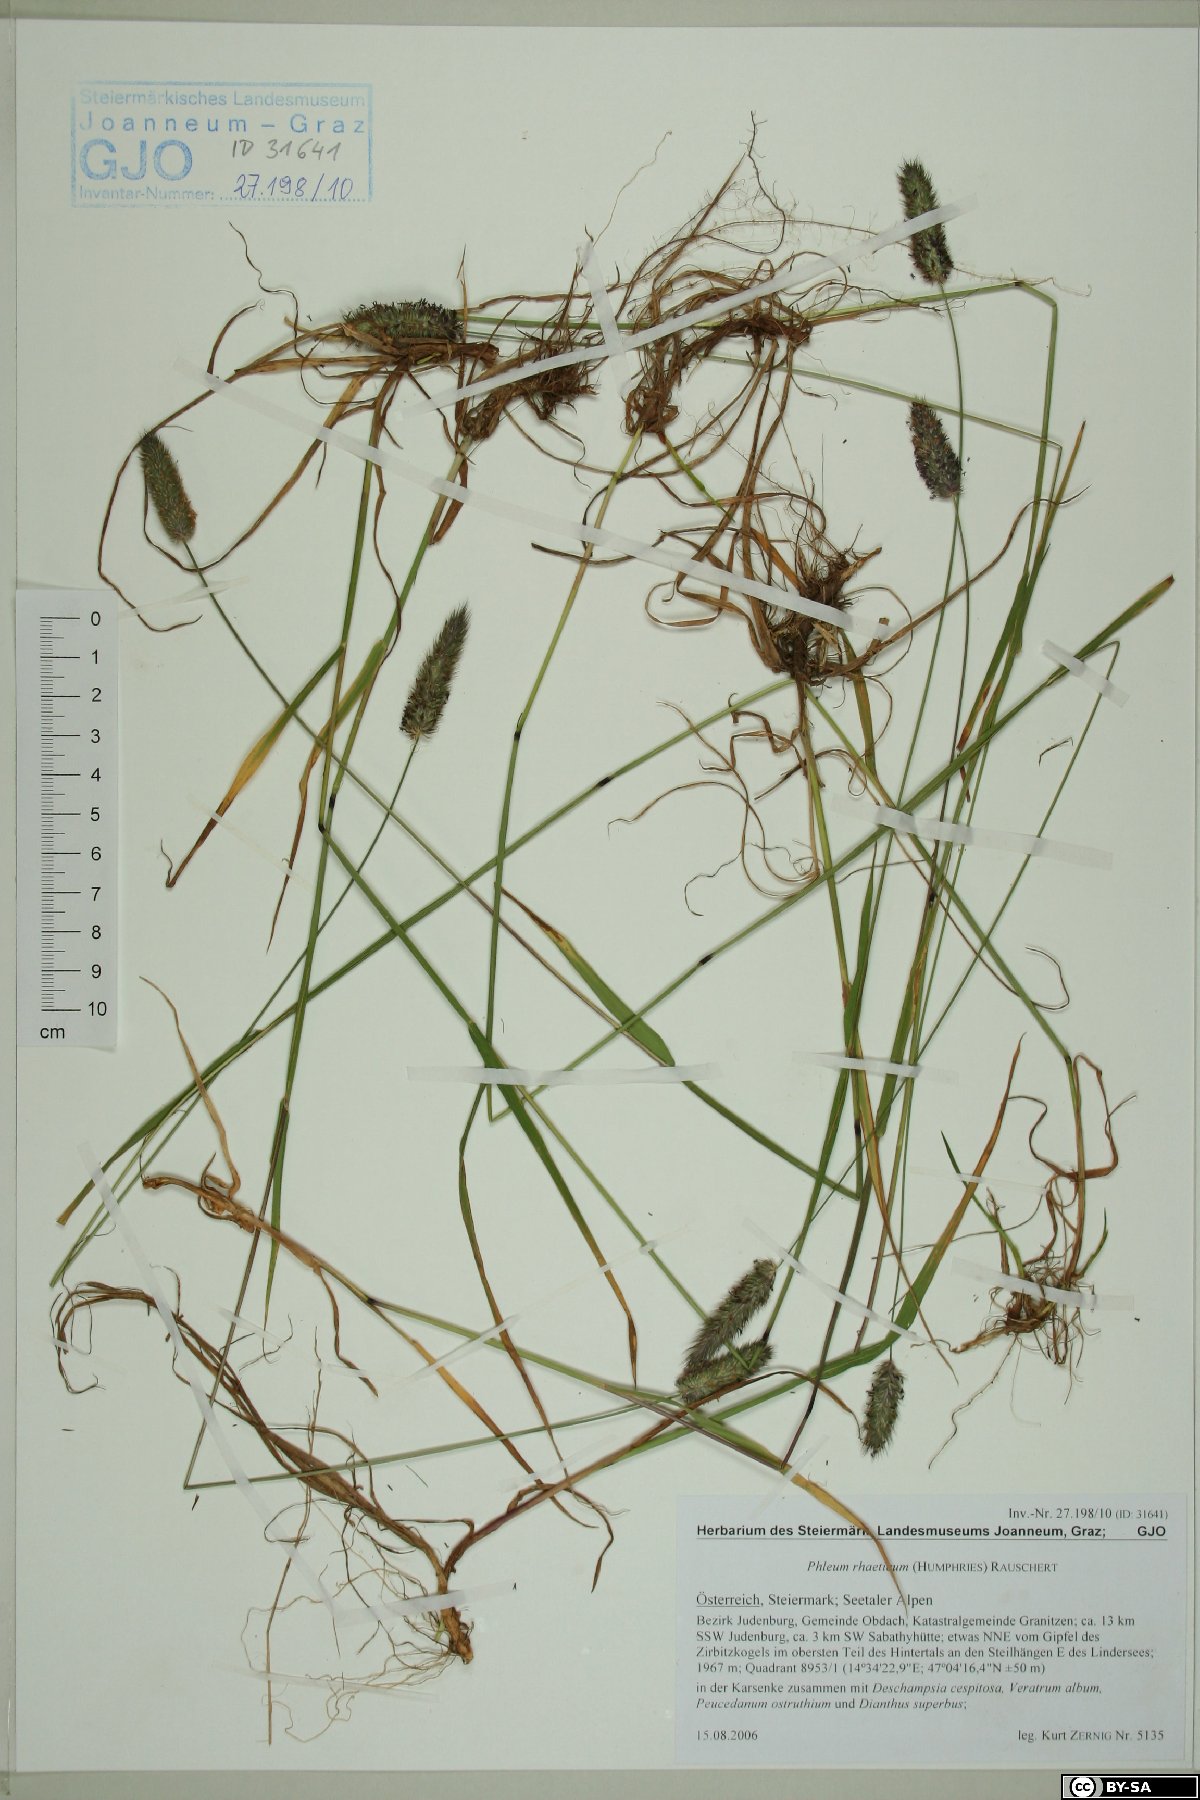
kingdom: Plantae
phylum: Tracheophyta
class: Liliopsida
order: Poales
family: Poaceae
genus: Phleum
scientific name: Phleum alpinum
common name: Alpine cat's-tail
